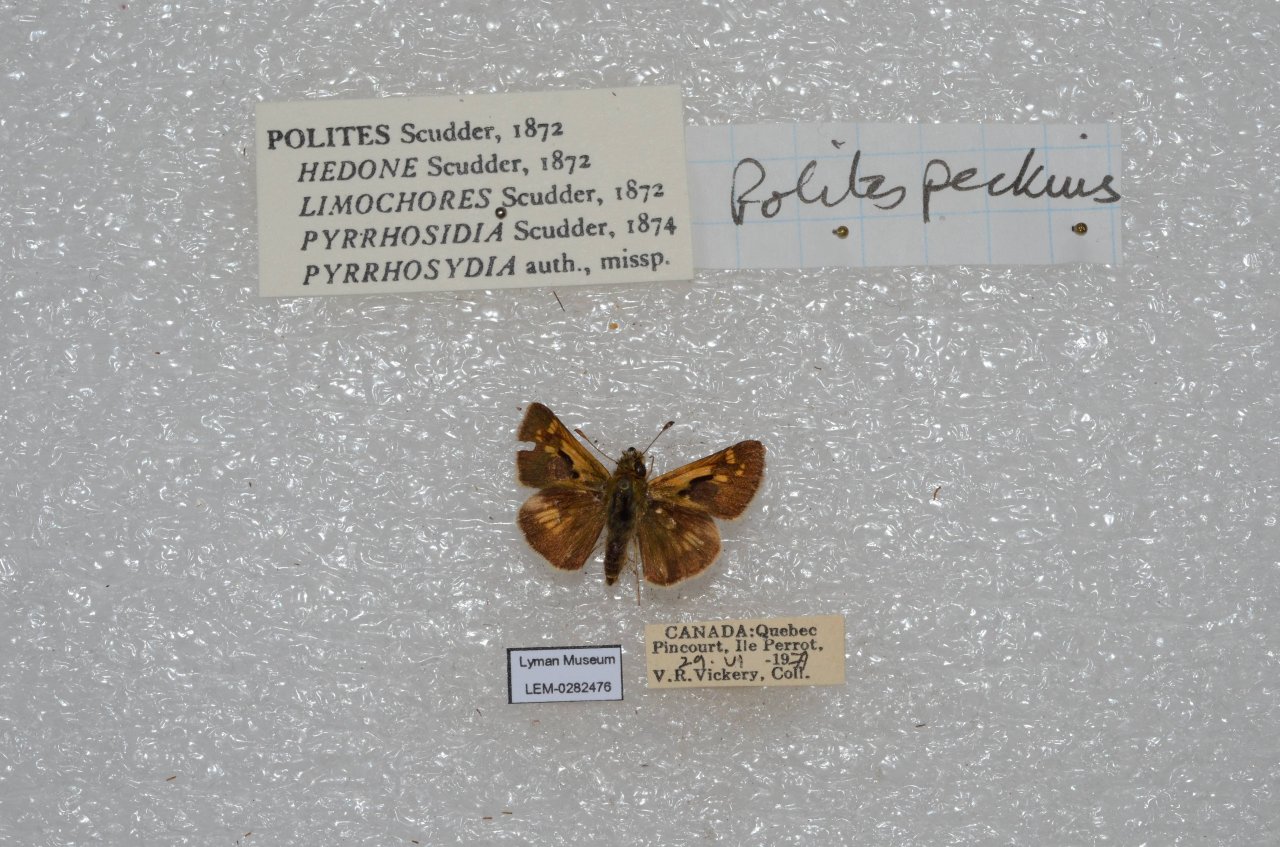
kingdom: Animalia
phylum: Arthropoda
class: Insecta
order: Lepidoptera
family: Hesperiidae
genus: Polites
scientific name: Polites coras
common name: Peck's Skipper
